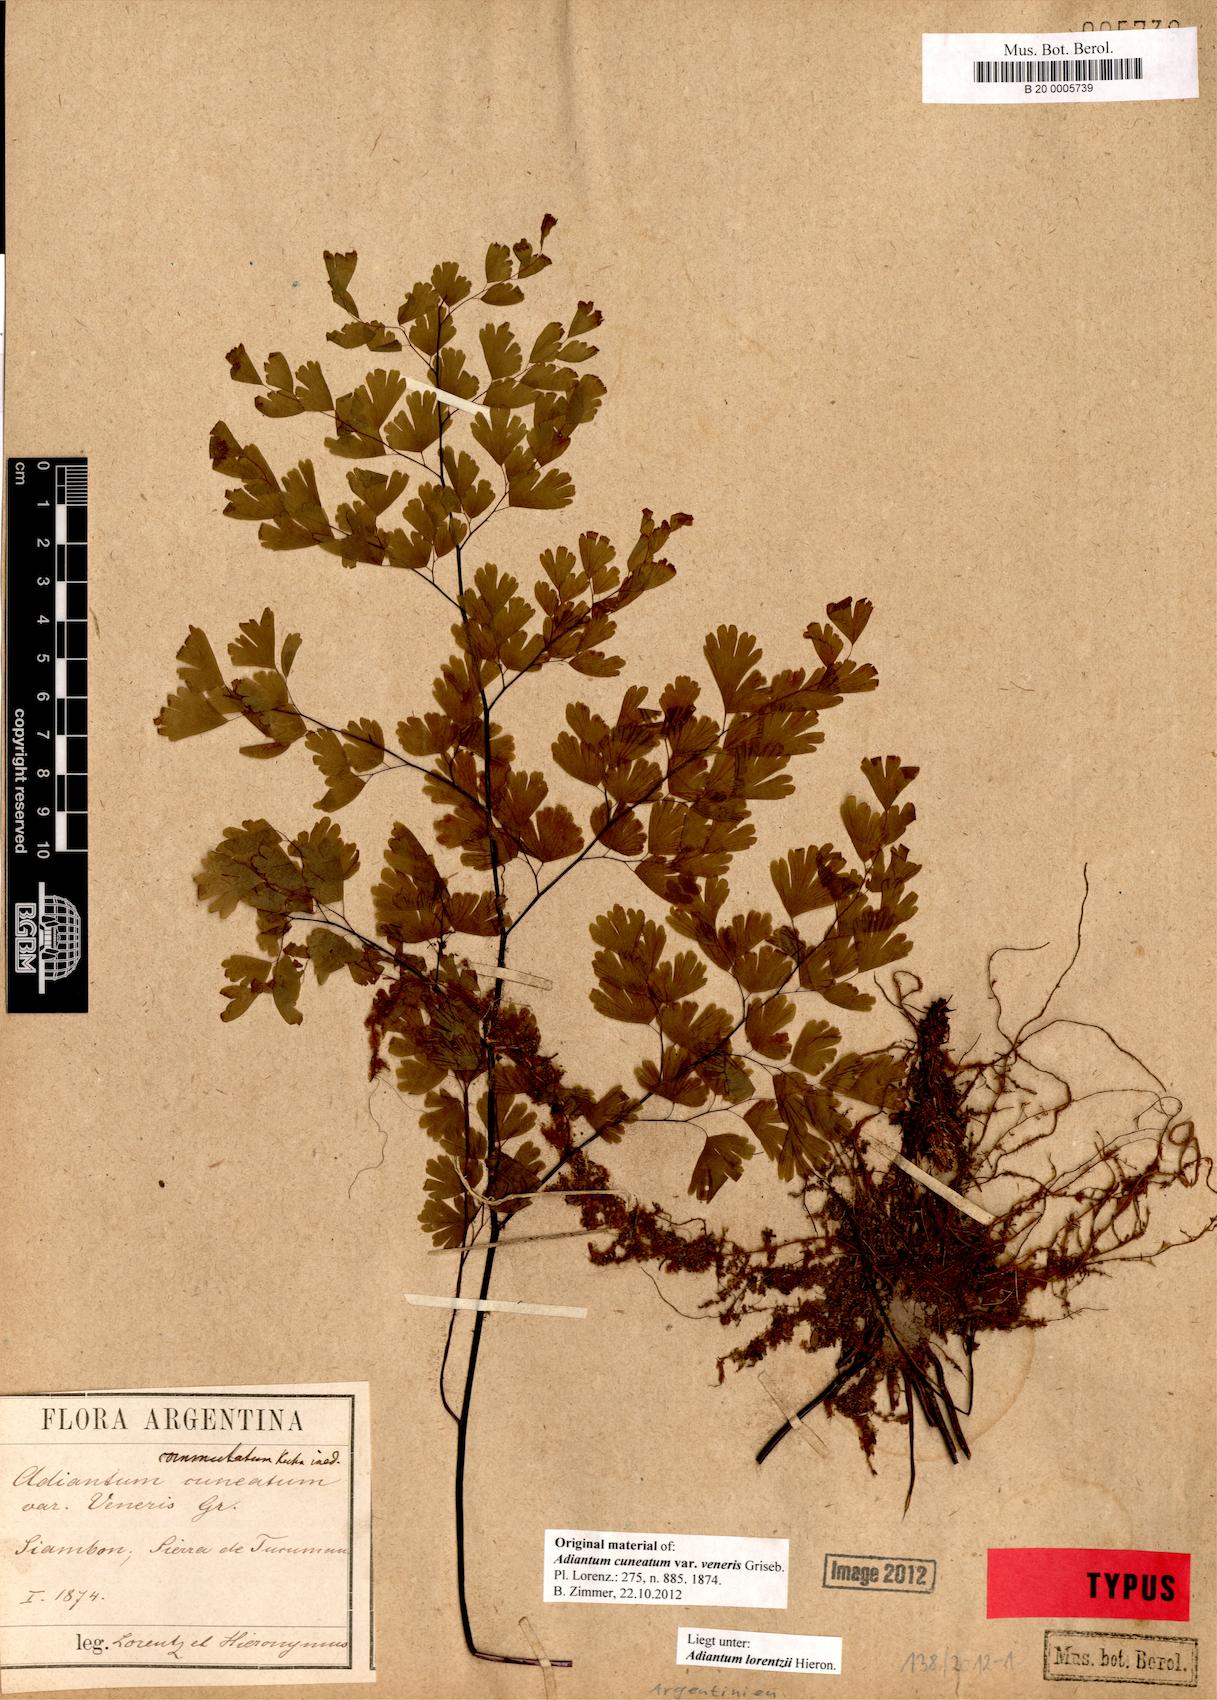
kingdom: Plantae
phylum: Tracheophyta
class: Polypodiopsida
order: Polypodiales
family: Pteridaceae
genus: Adiantum
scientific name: Adiantum lorentzii
